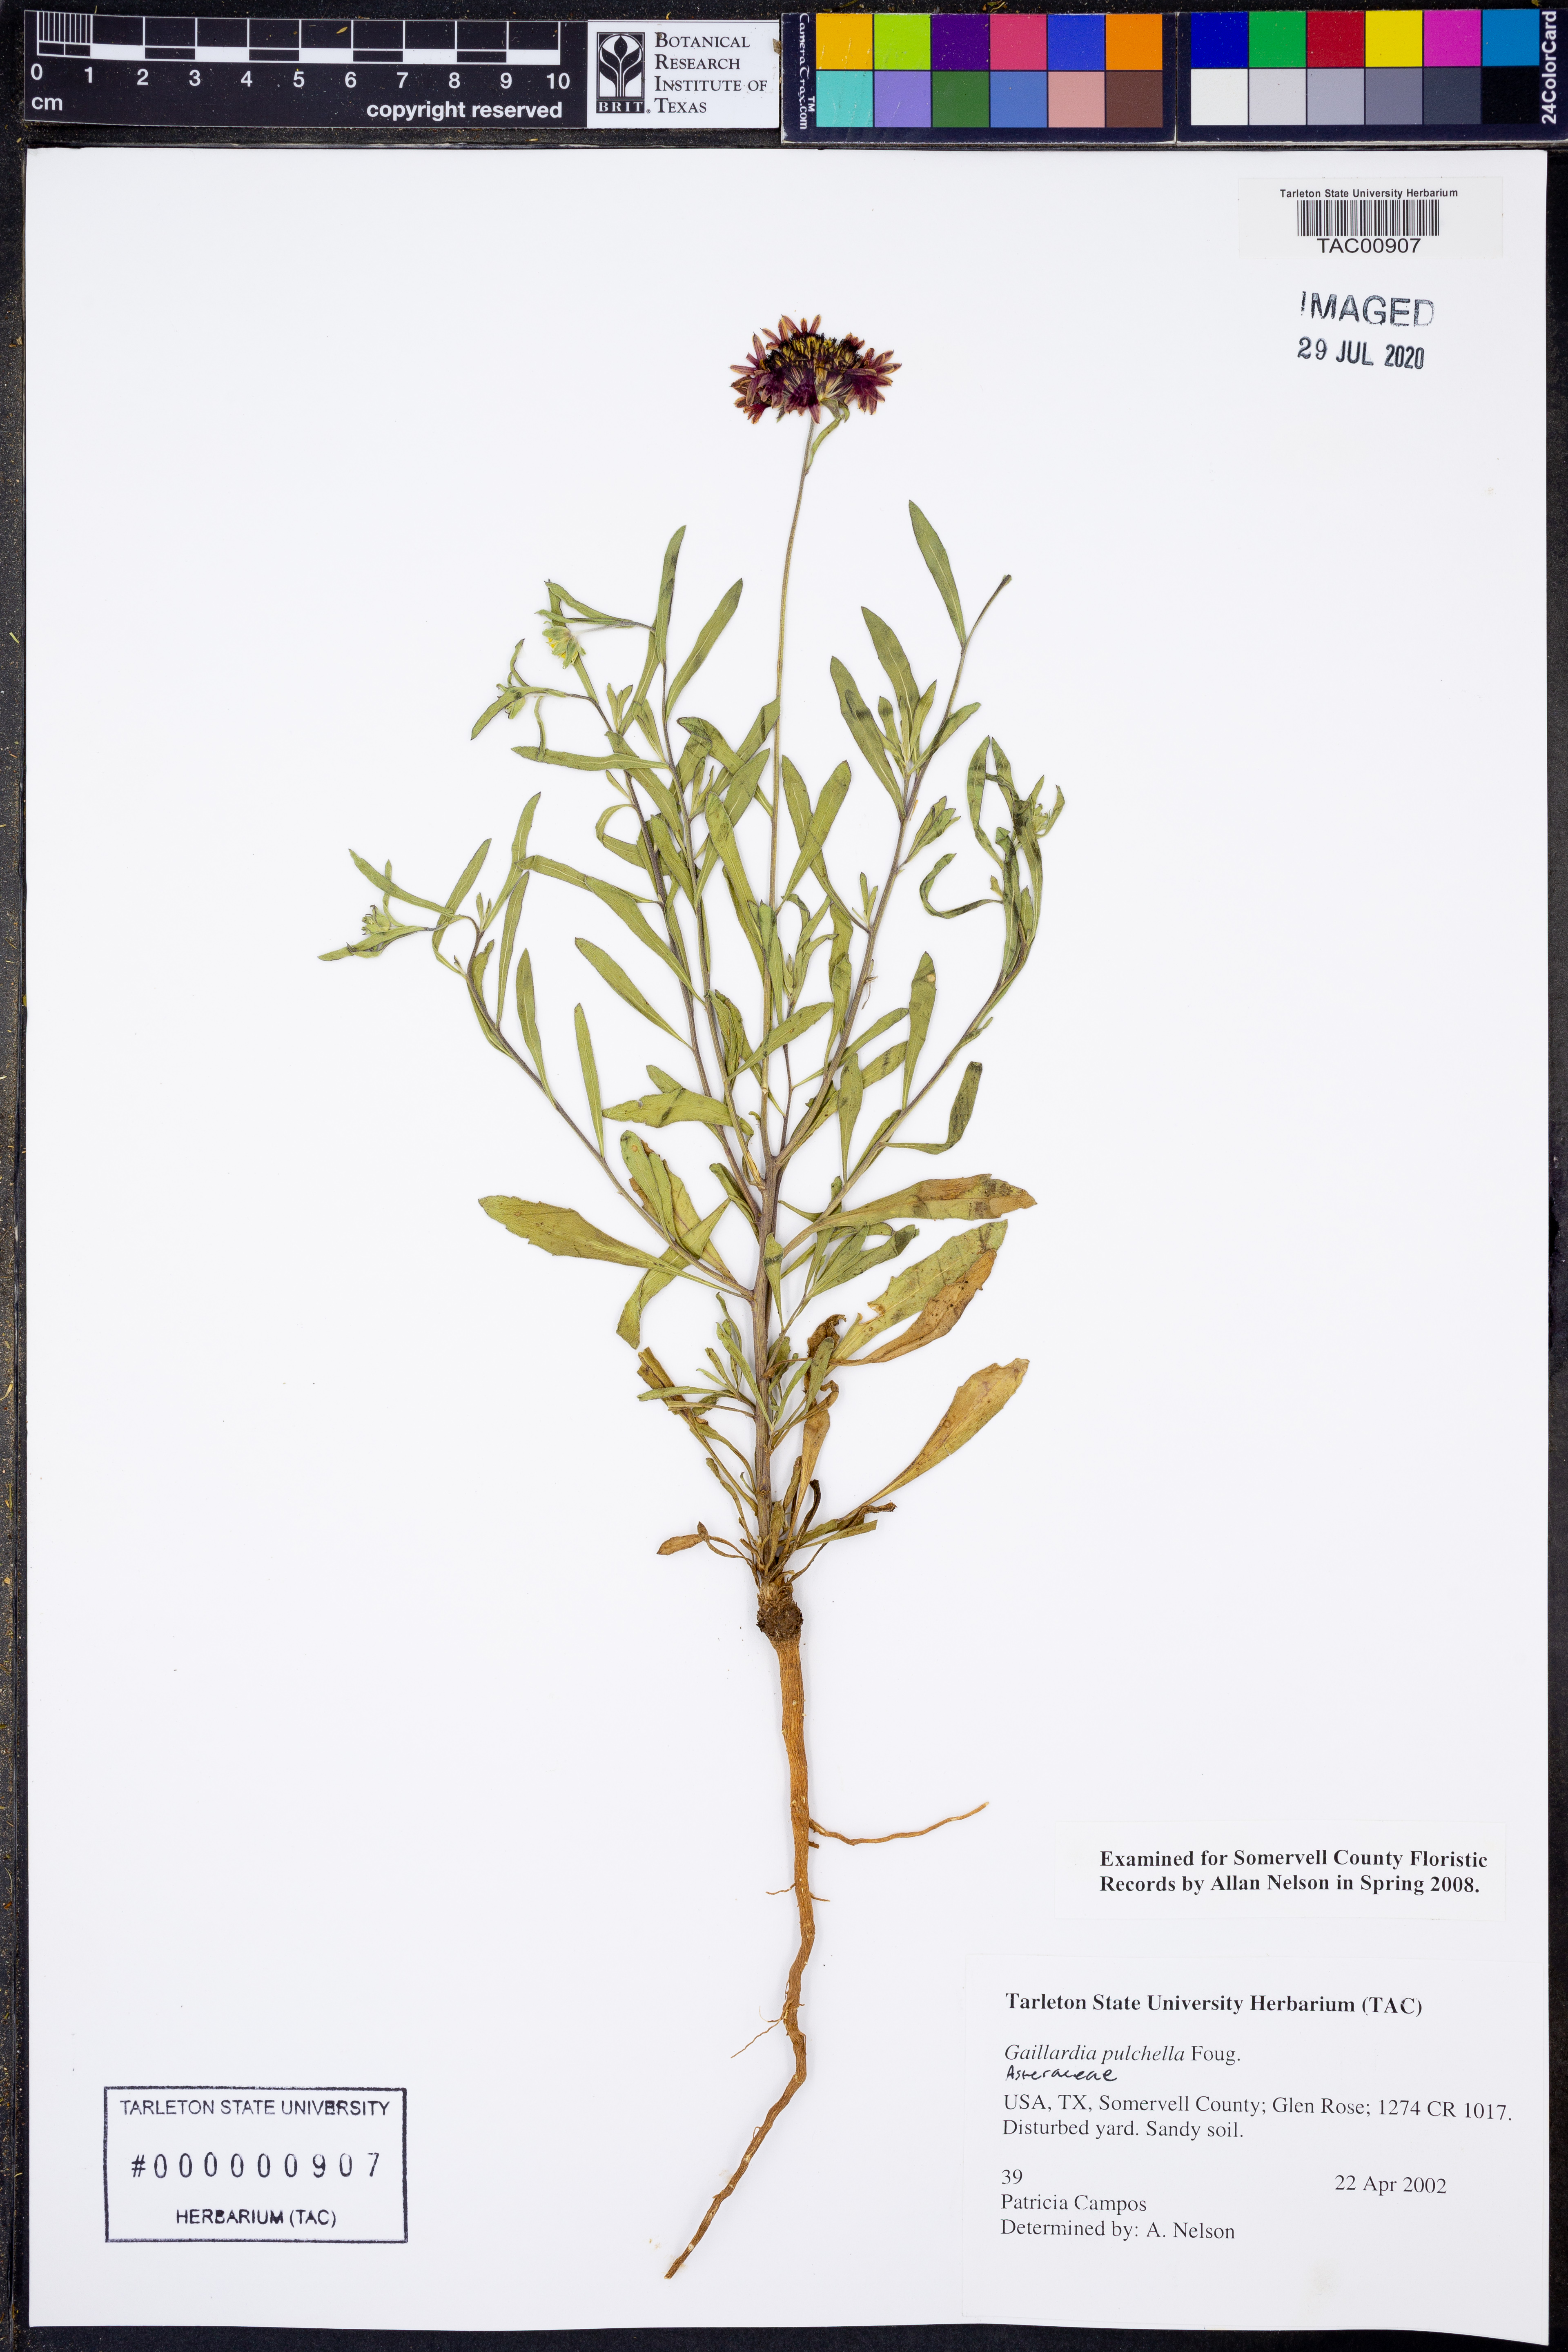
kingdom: Plantae
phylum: Tracheophyta
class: Magnoliopsida
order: Asterales
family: Asteraceae
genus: Gaillardia
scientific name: Gaillardia pulchella
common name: Firewheel
